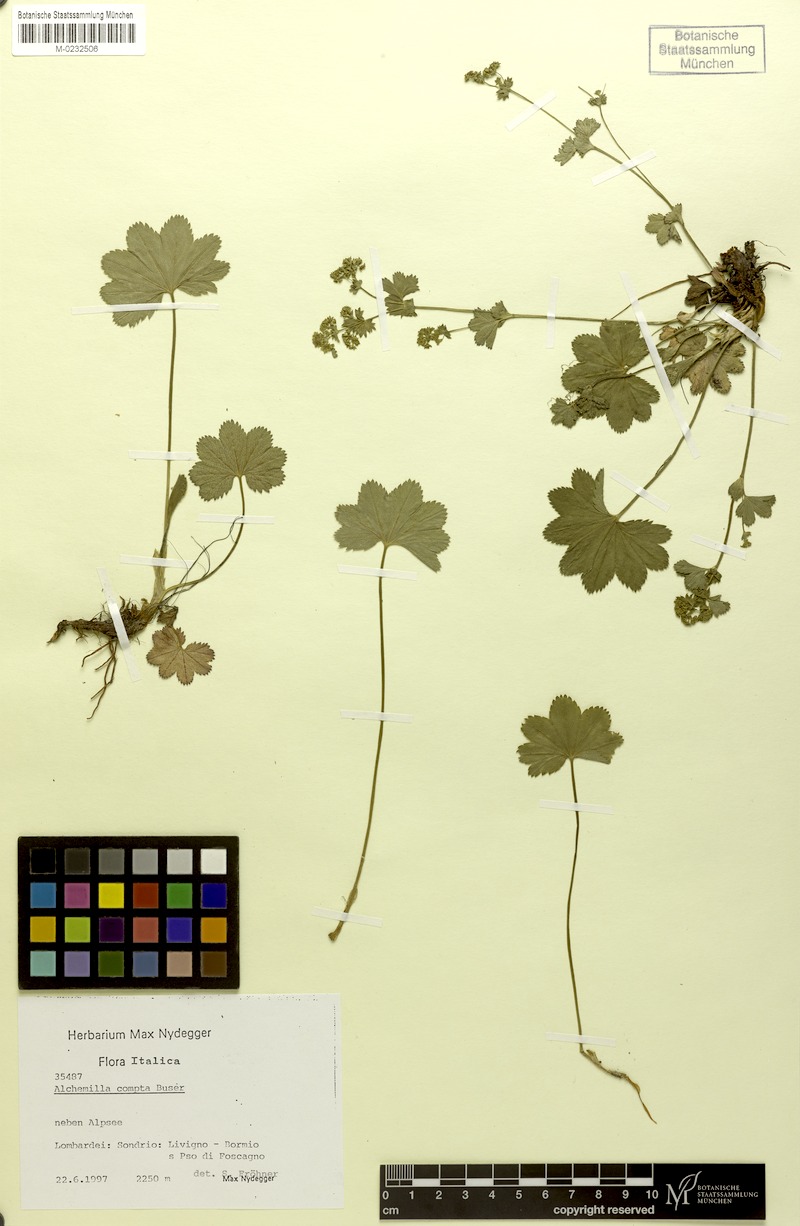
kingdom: Plantae
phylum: Tracheophyta
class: Magnoliopsida
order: Rosales
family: Rosaceae
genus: Alchemilla
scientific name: Alchemilla compta
